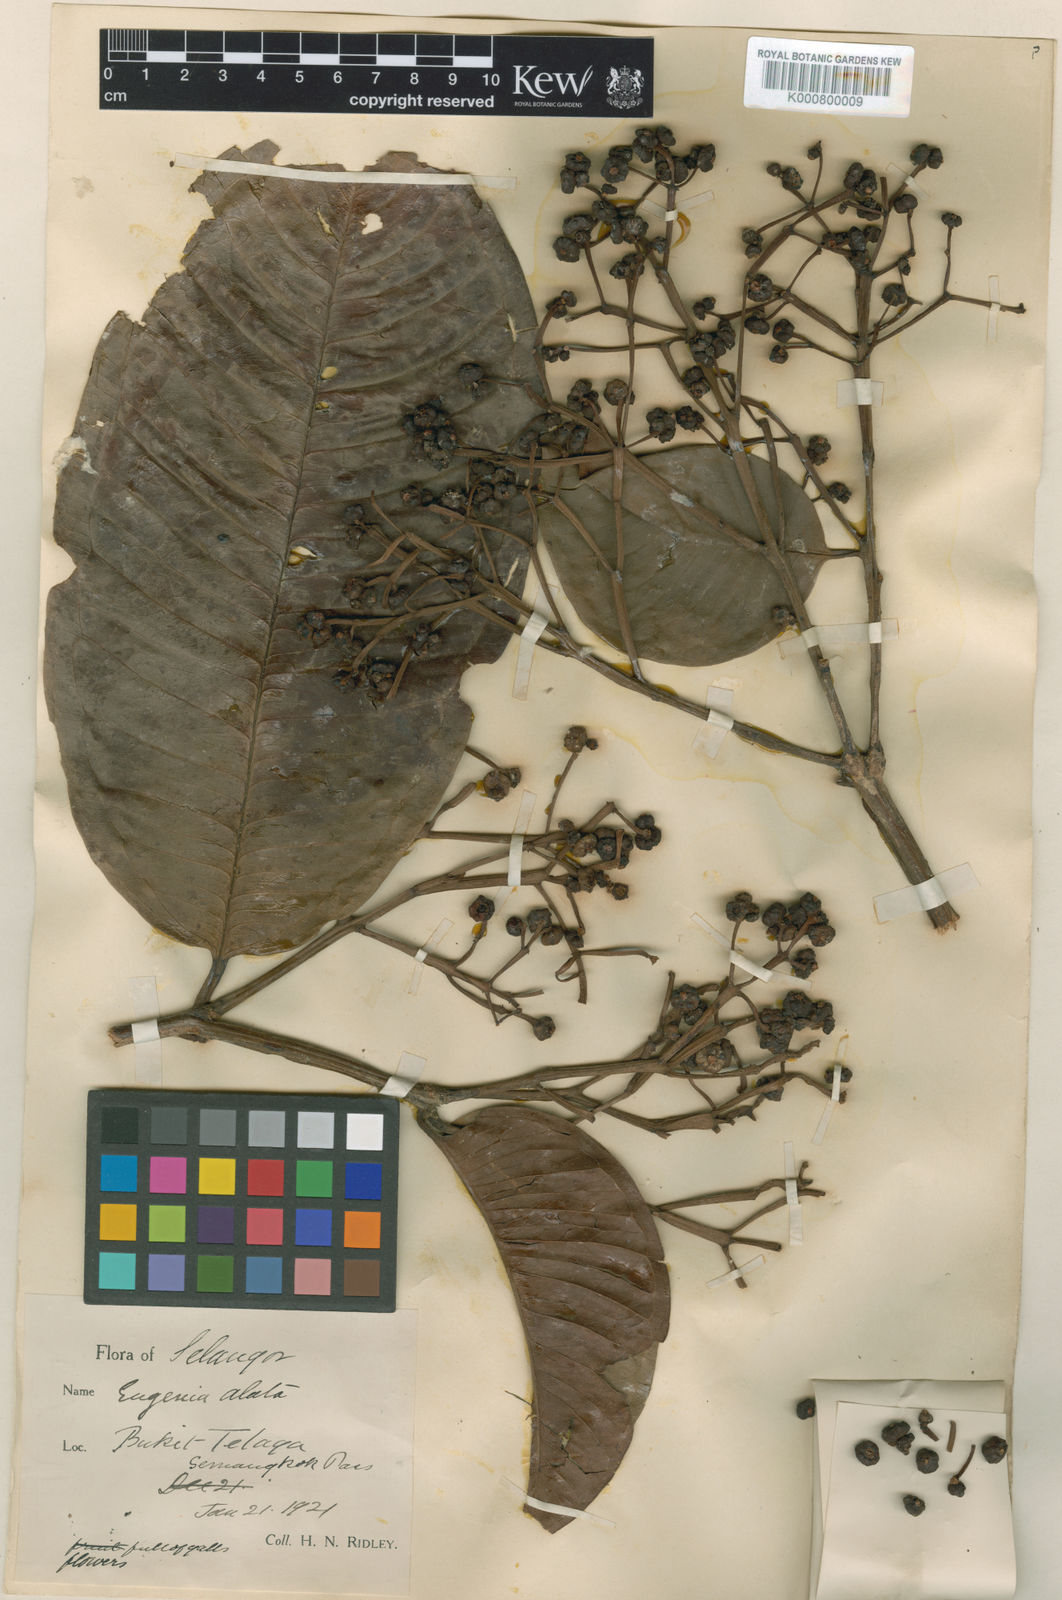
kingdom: Plantae
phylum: Tracheophyta
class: Magnoliopsida
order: Myrtales
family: Myrtaceae
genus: Syzygium
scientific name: Syzygium
